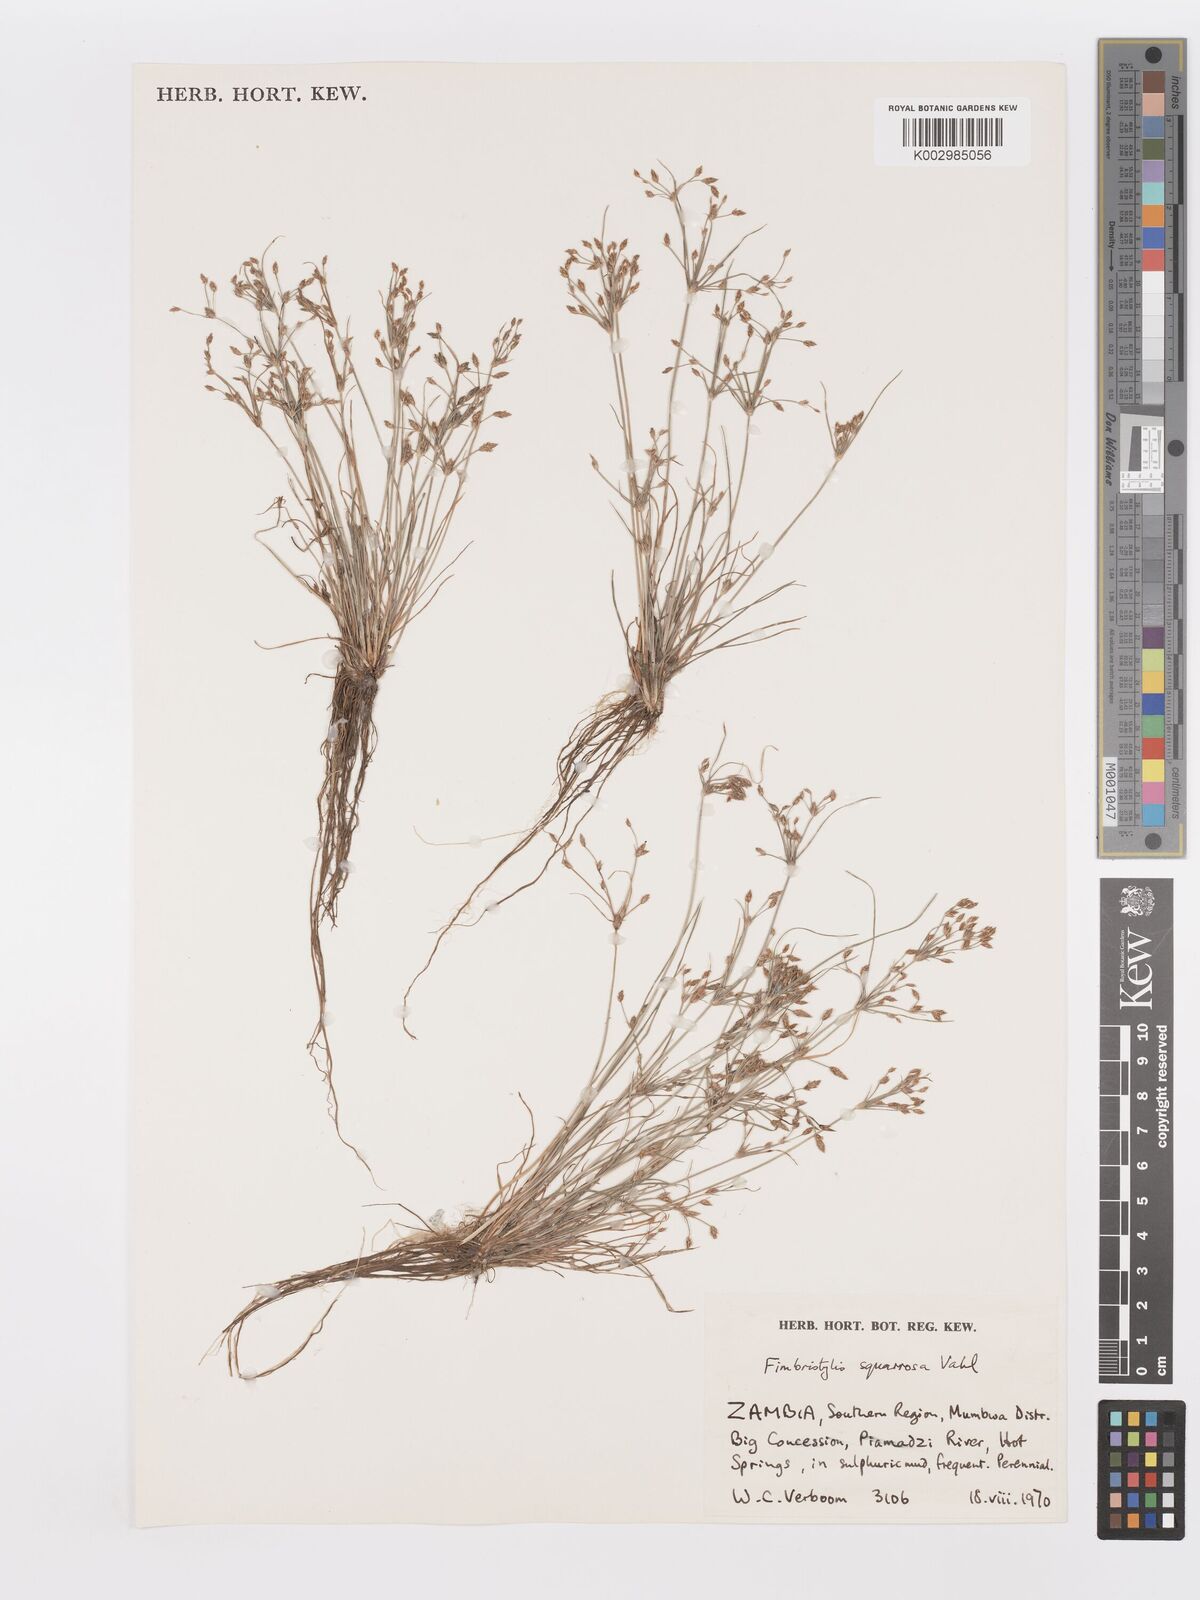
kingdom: Plantae
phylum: Tracheophyta
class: Liliopsida
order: Poales
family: Cyperaceae
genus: Fimbristylis
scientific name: Fimbristylis velata
